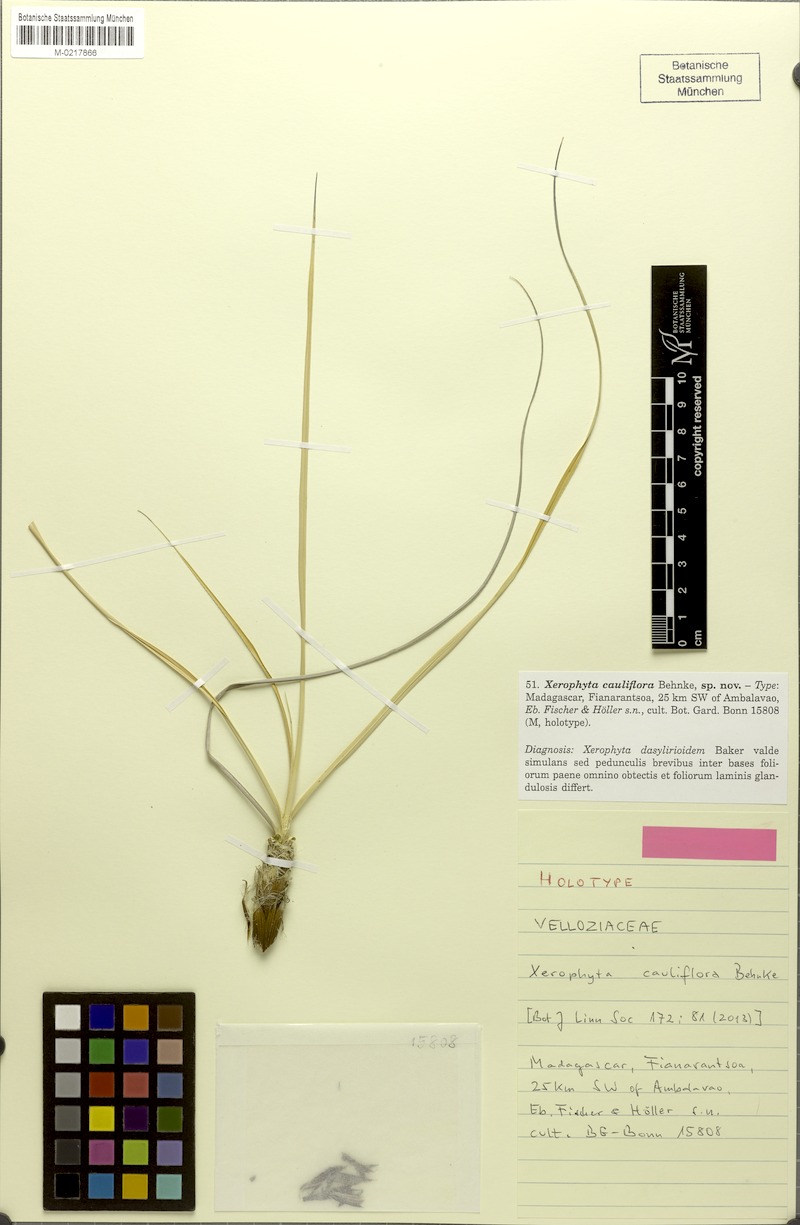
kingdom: Plantae
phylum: Tracheophyta
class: Liliopsida
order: Pandanales
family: Velloziaceae
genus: Xerophyta
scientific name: Xerophyta cauliflora
